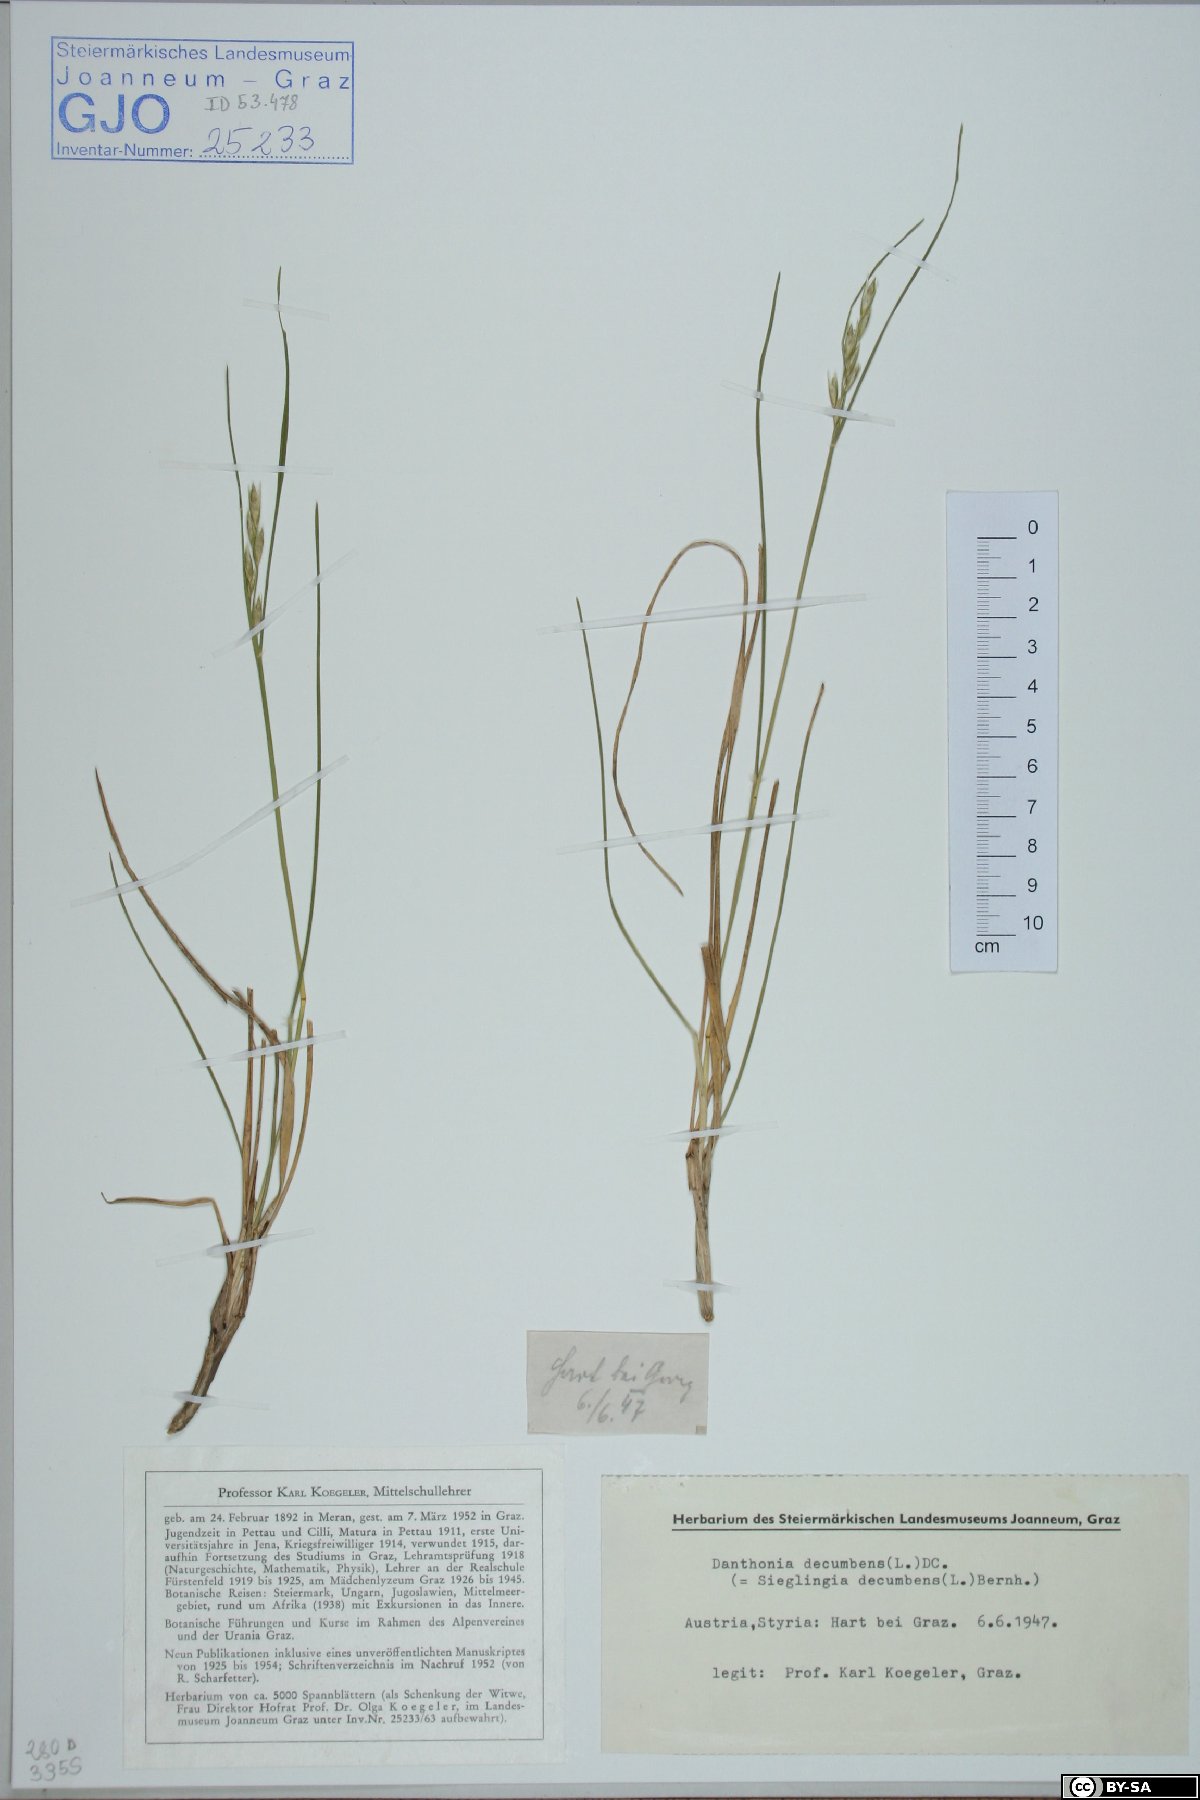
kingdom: Plantae
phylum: Tracheophyta
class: Liliopsida
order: Poales
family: Poaceae
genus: Danthonia
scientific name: Danthonia decumbens
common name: Common heathgrass
